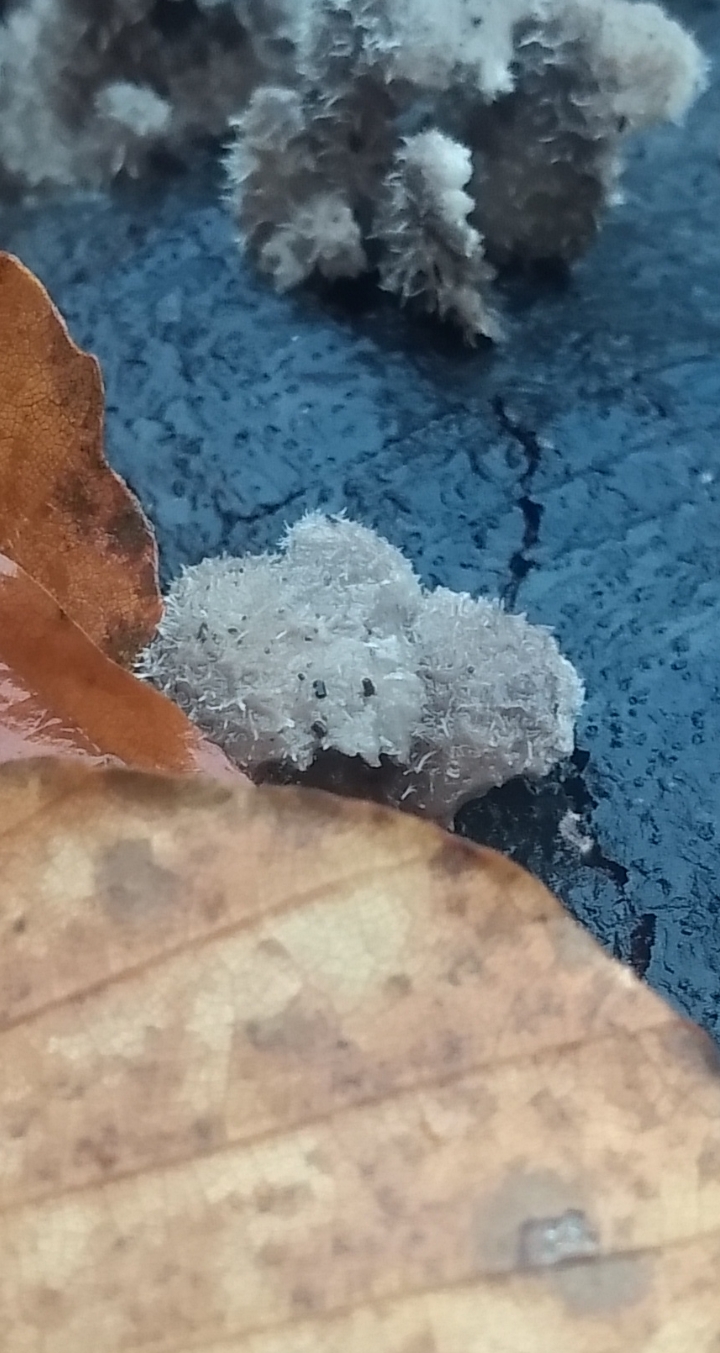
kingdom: Fungi
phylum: Basidiomycota
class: Agaricomycetes
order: Agaricales
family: Schizophyllaceae
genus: Schizophyllum
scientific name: Schizophyllum commune
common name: kløvblad
